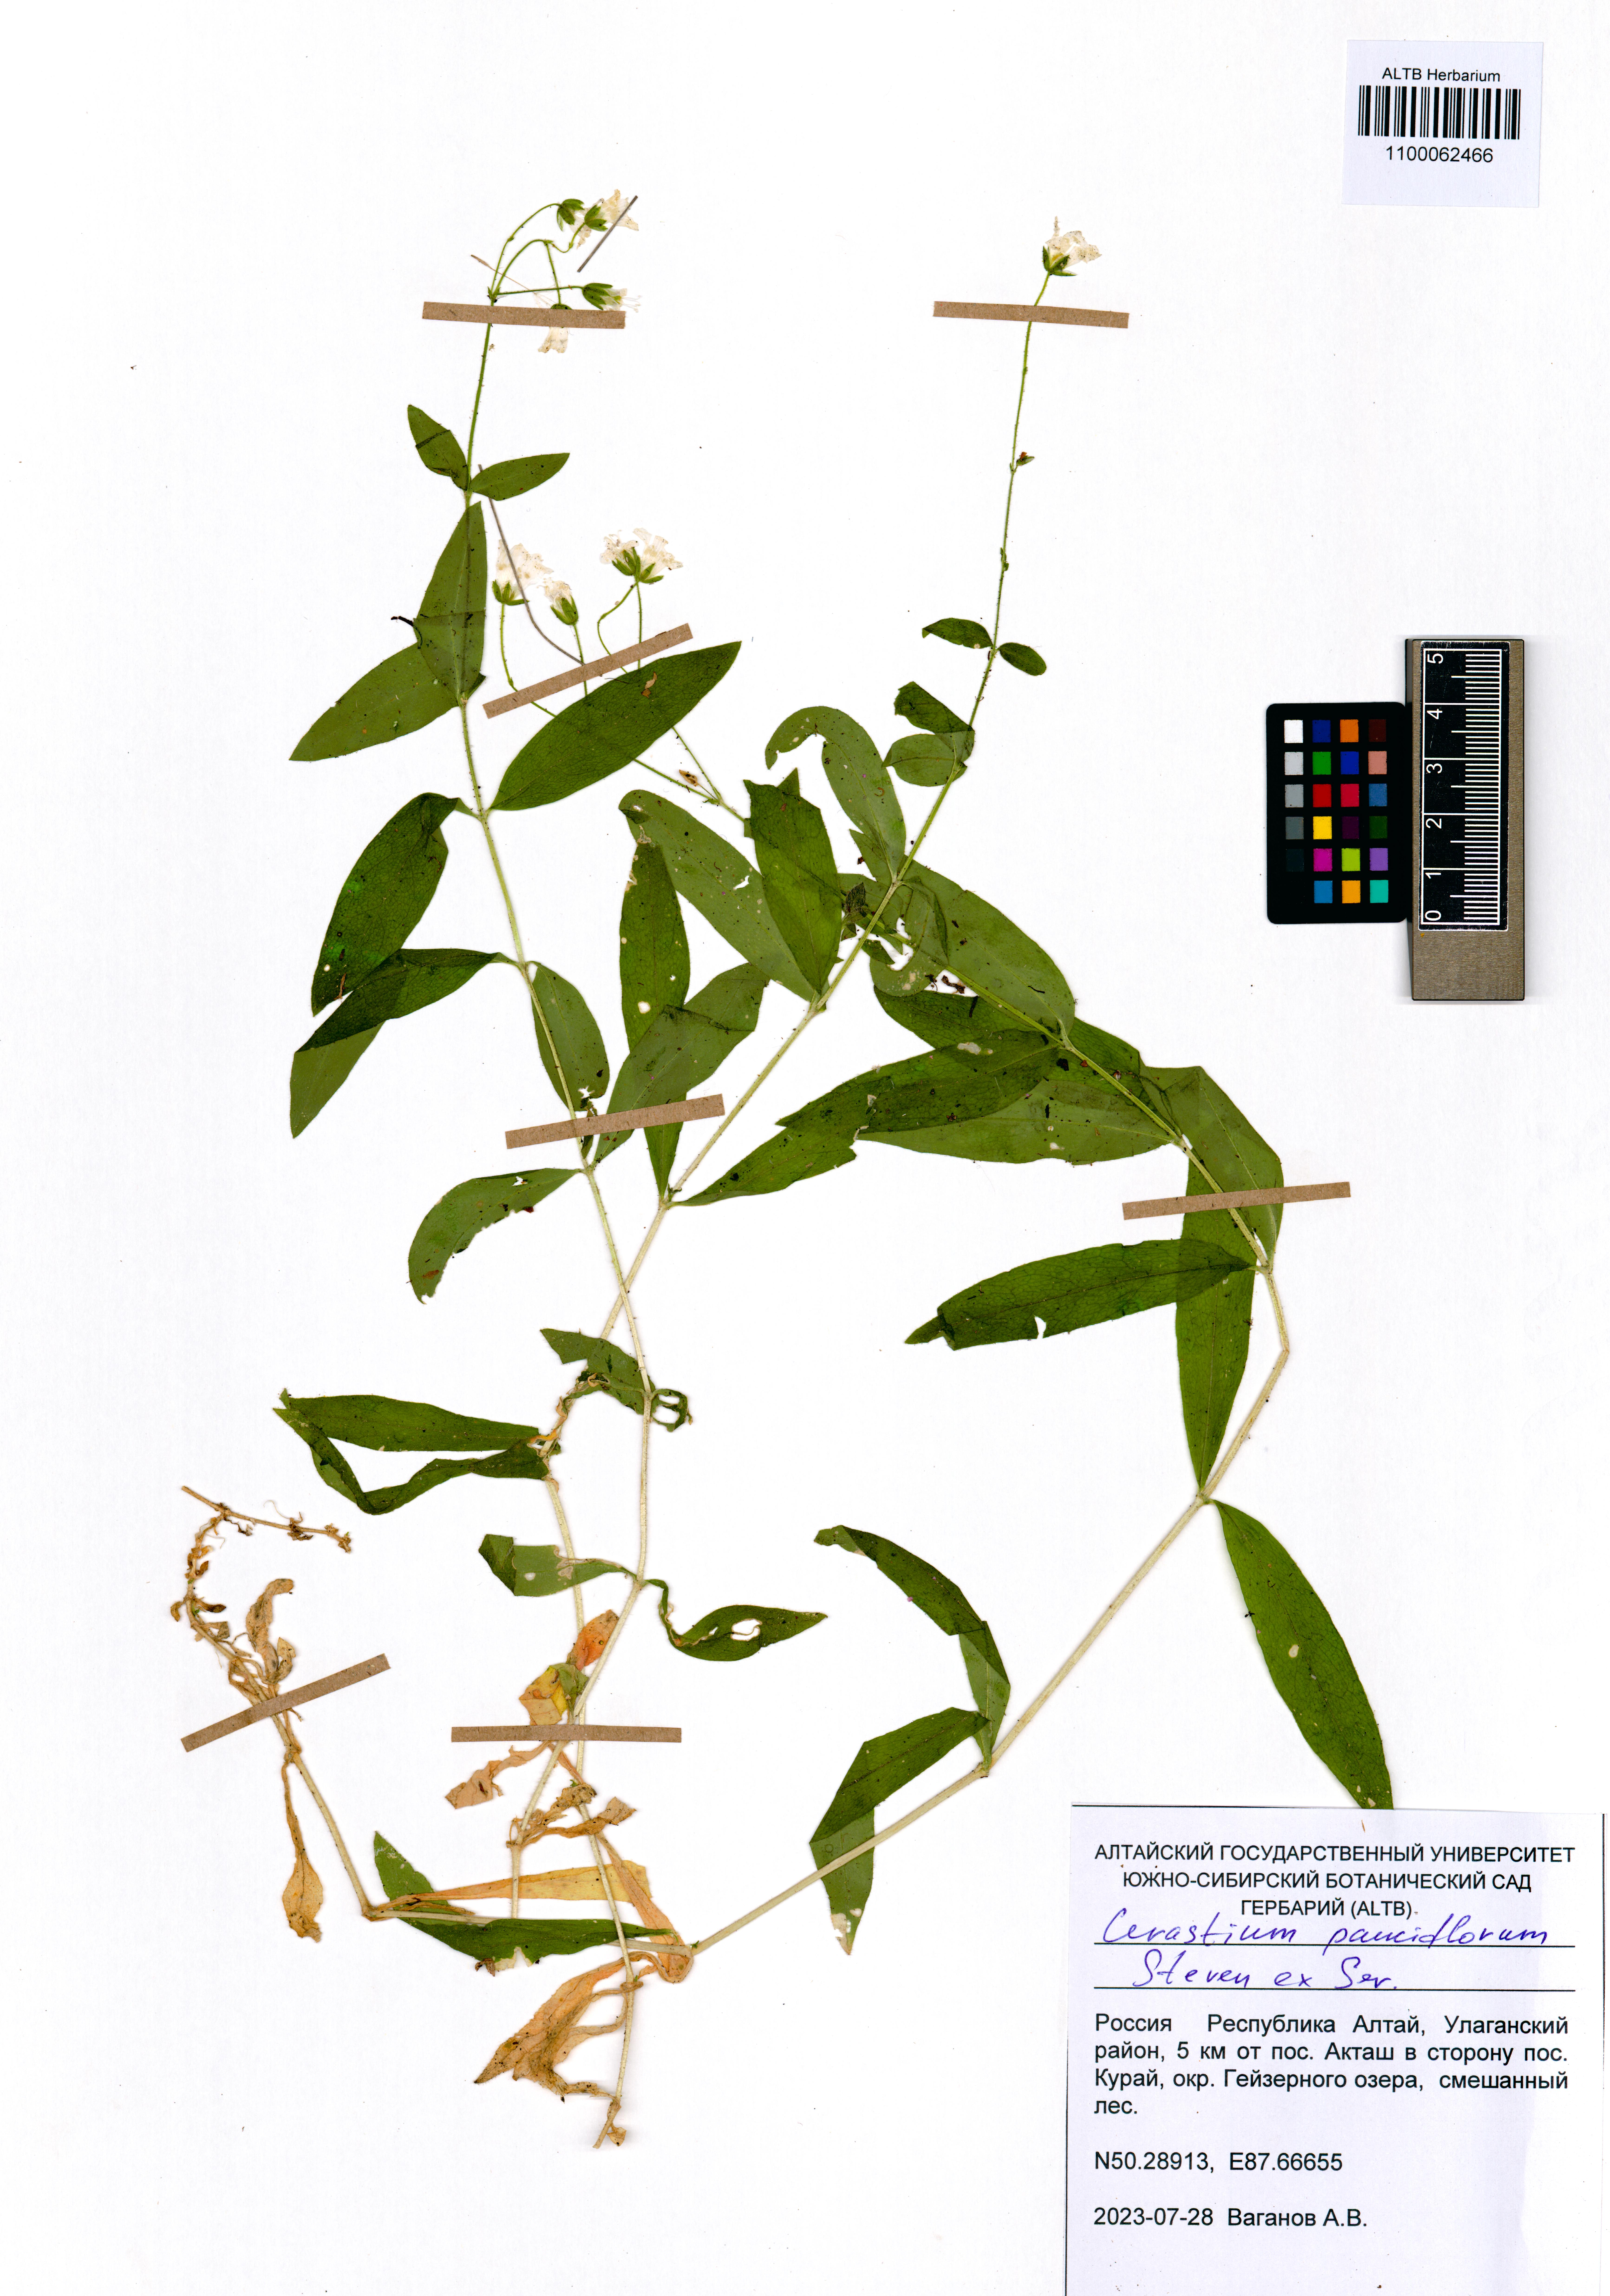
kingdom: Plantae
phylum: Tracheophyta
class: Magnoliopsida
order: Caryophyllales
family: Caryophyllaceae
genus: Cerastium
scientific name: Cerastium pauciflorum
